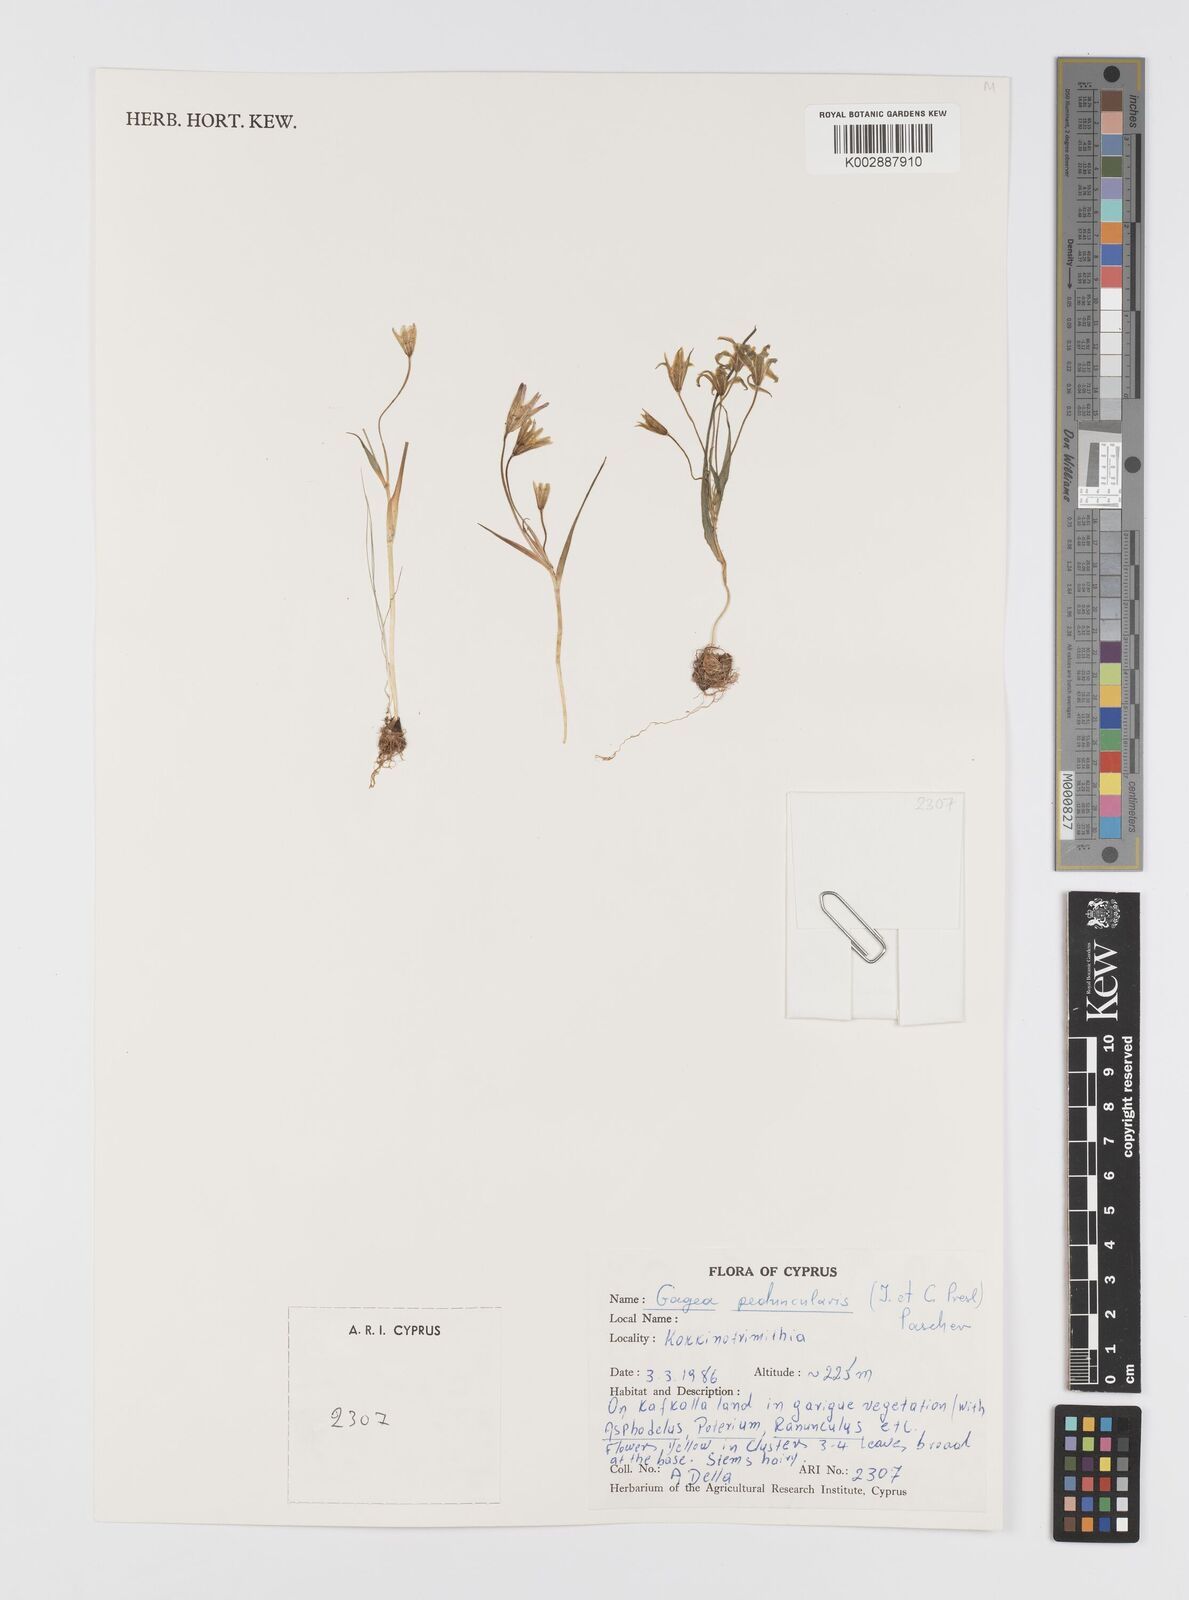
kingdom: Plantae
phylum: Tracheophyta
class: Liliopsida
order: Liliales
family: Liliaceae
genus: Gagea
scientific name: Gagea peduncularis
